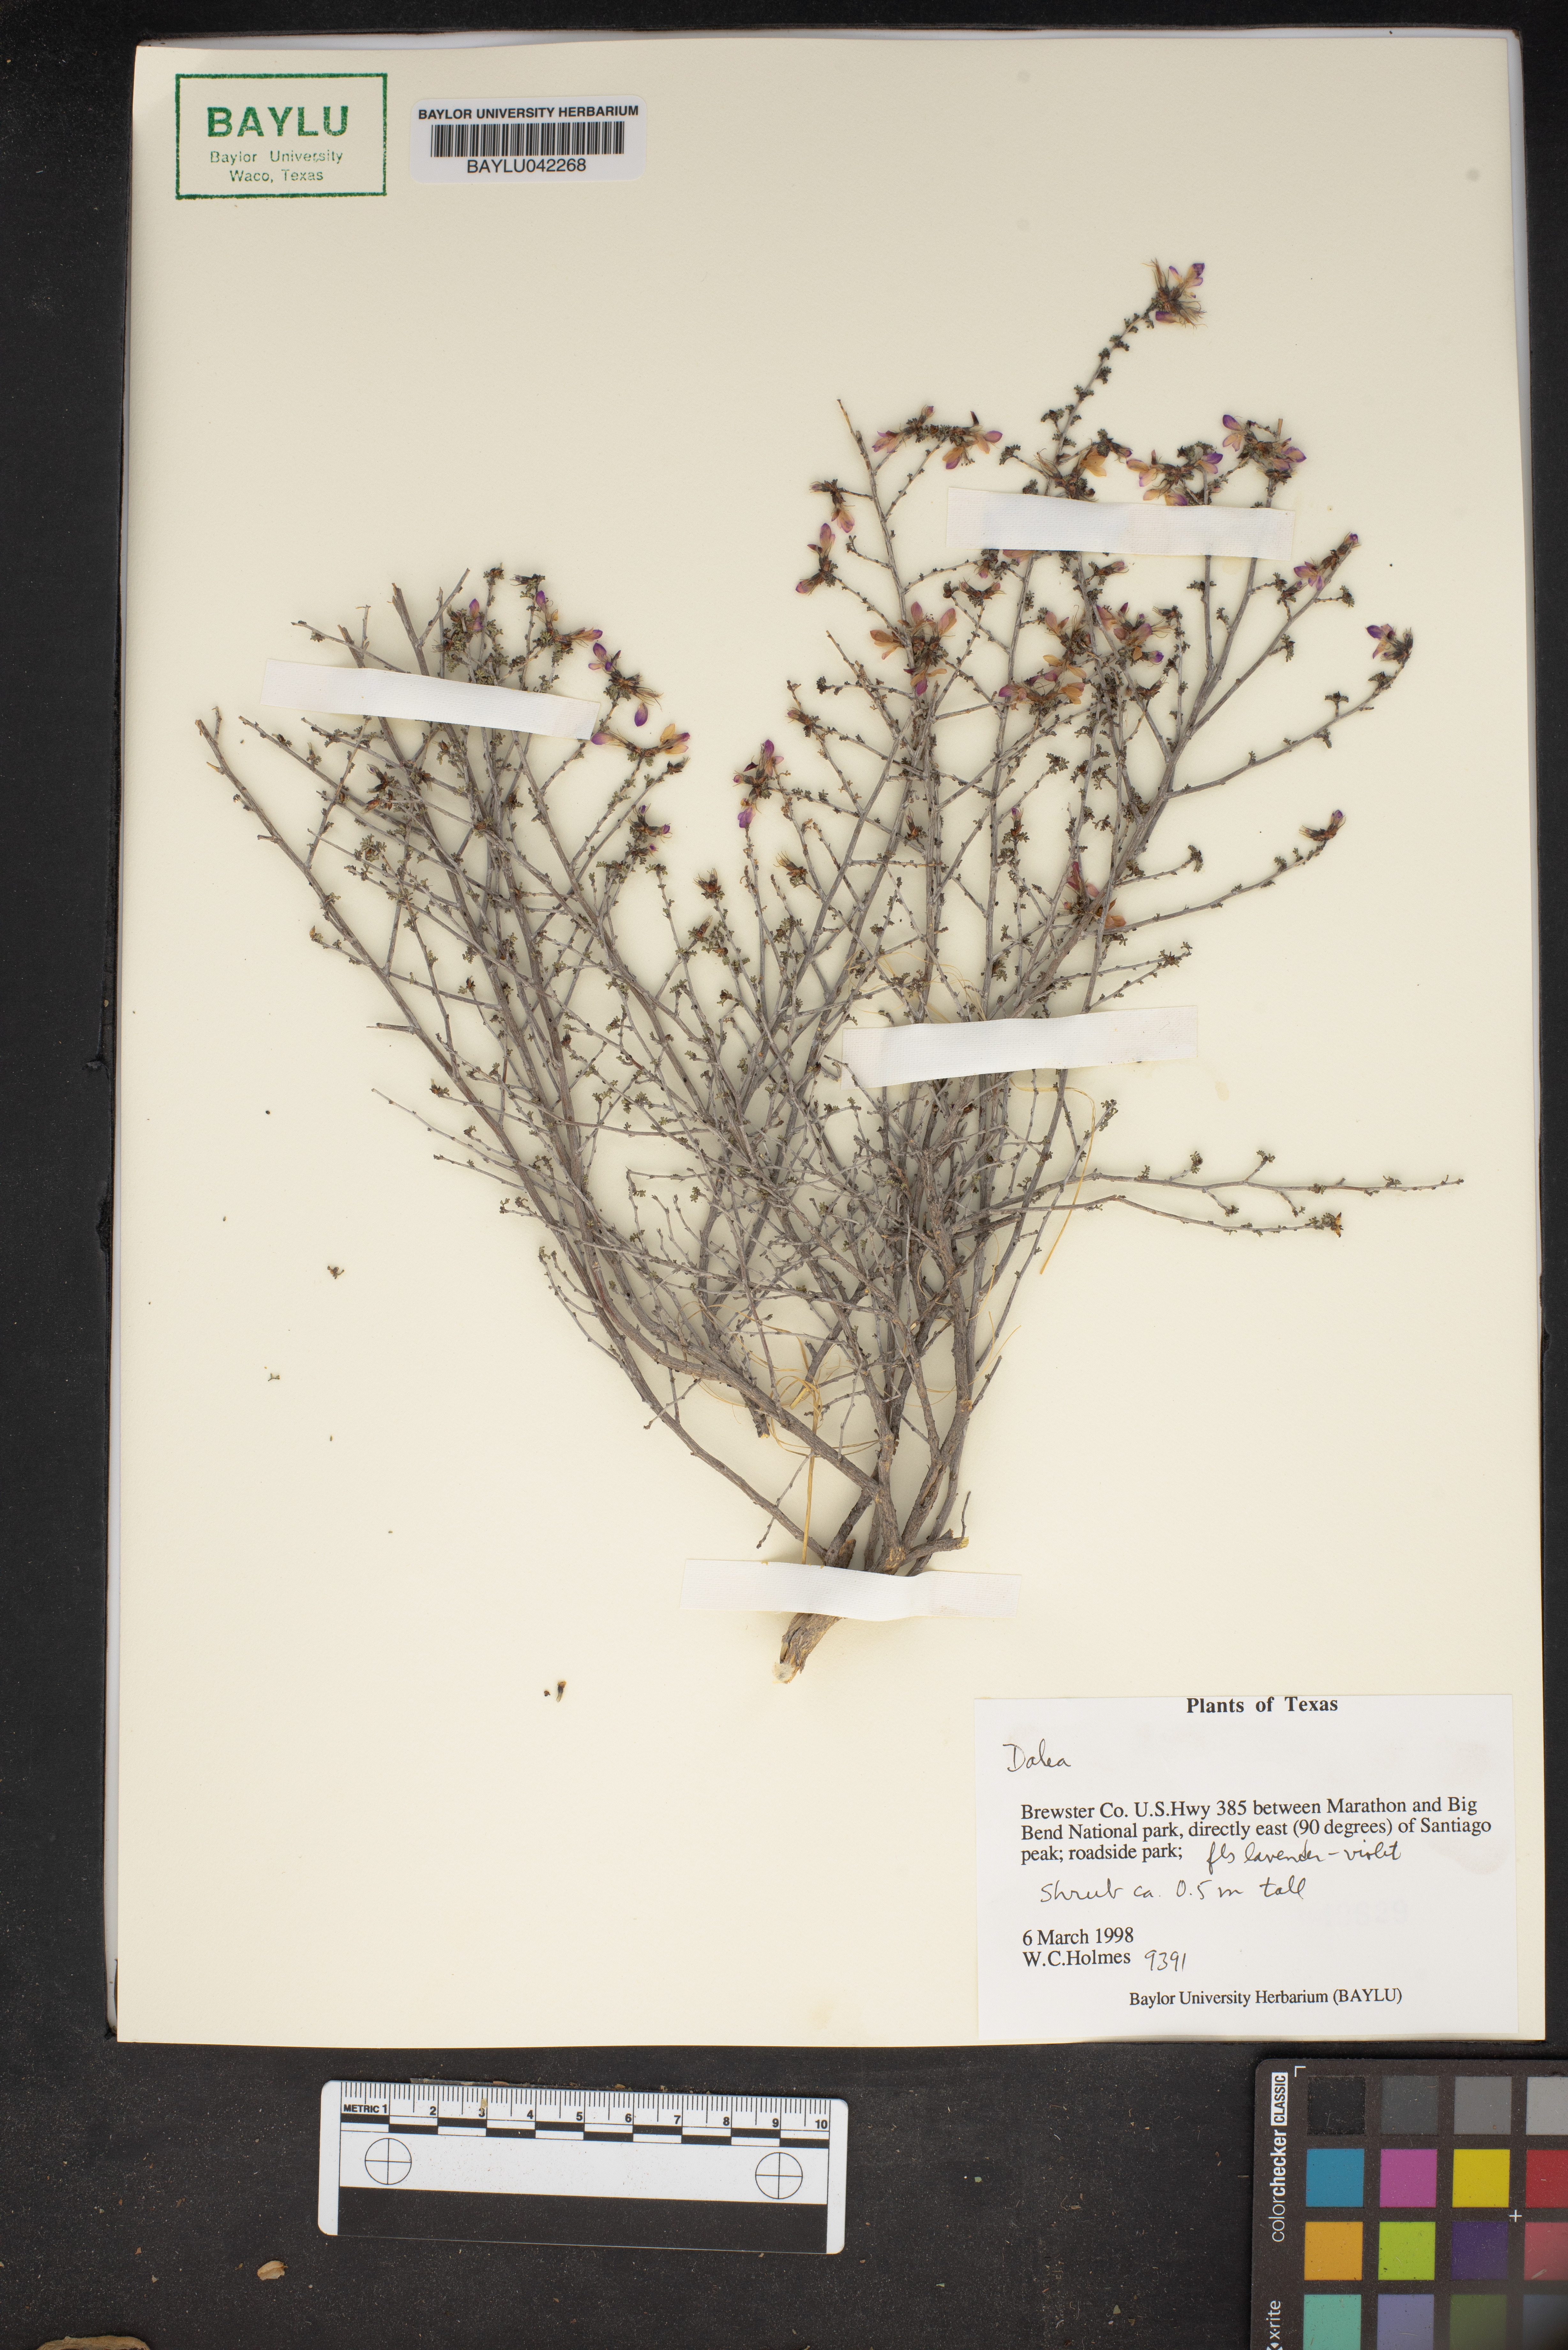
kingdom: Plantae
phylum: Tracheophyta
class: Magnoliopsida
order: Fabales
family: Fabaceae
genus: Dalea
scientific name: Dalea
